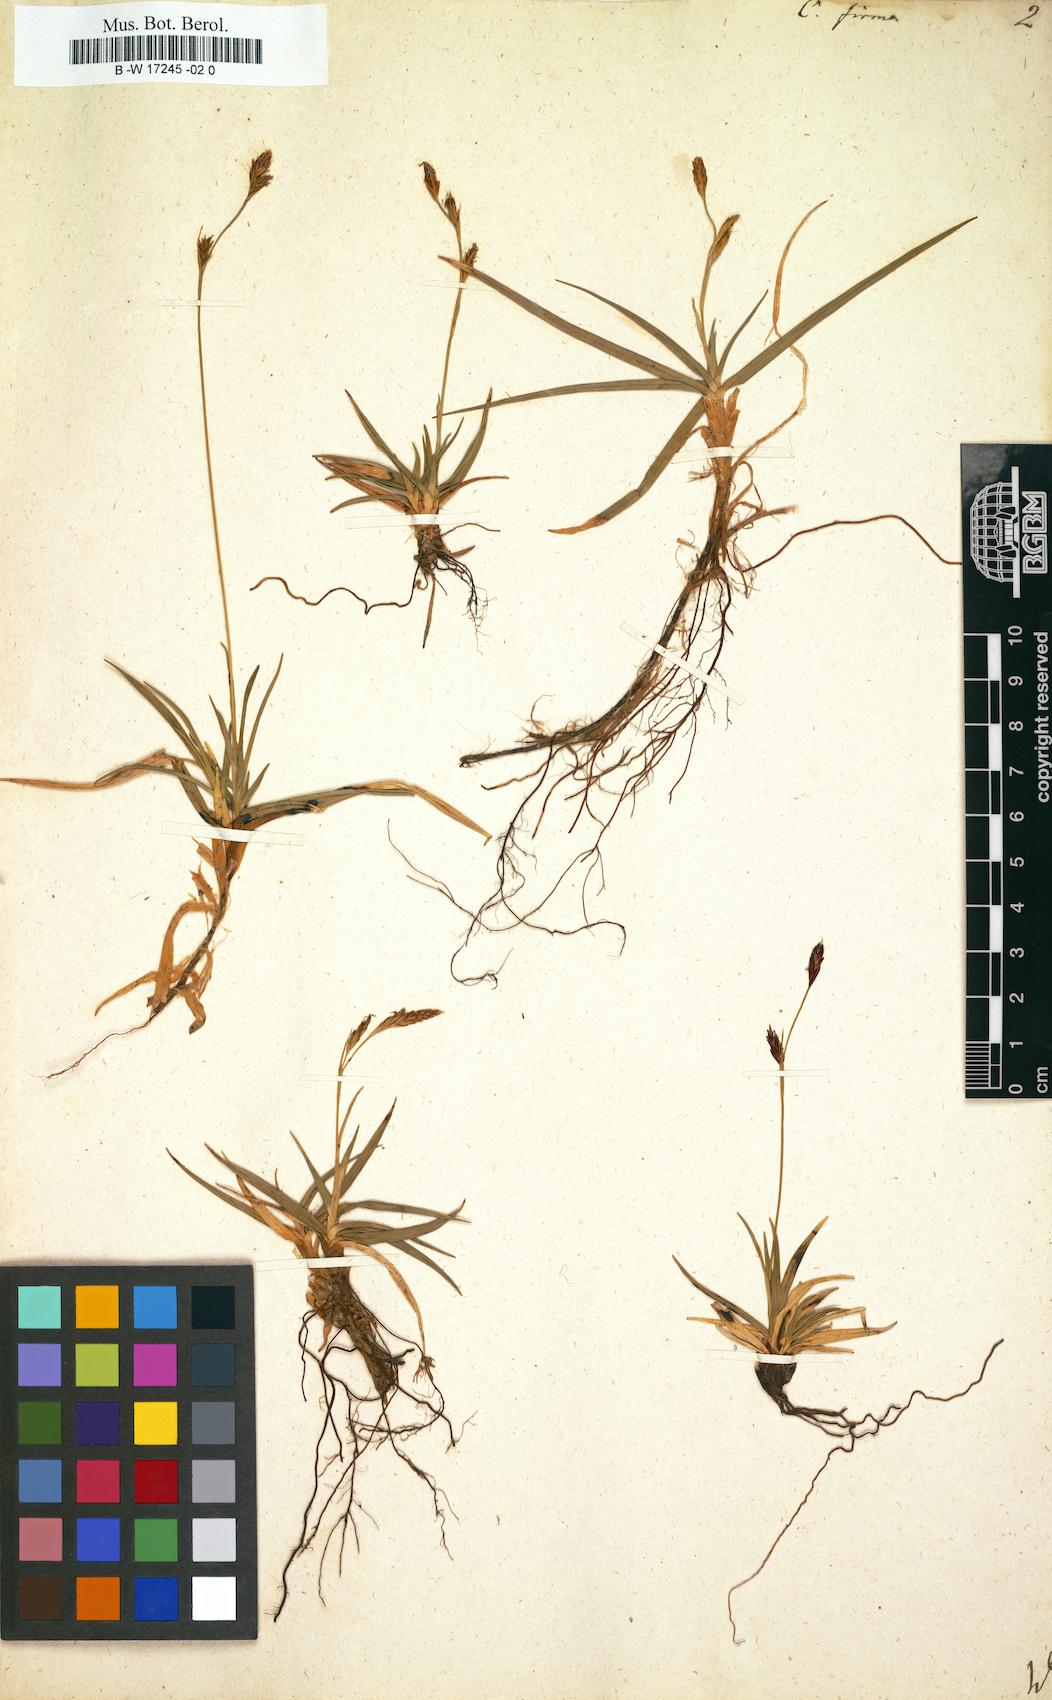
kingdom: Plantae
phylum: Tracheophyta
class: Liliopsida
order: Poales
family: Cyperaceae
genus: Carex
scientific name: Carex firma
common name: Dwarf pillow sedge
